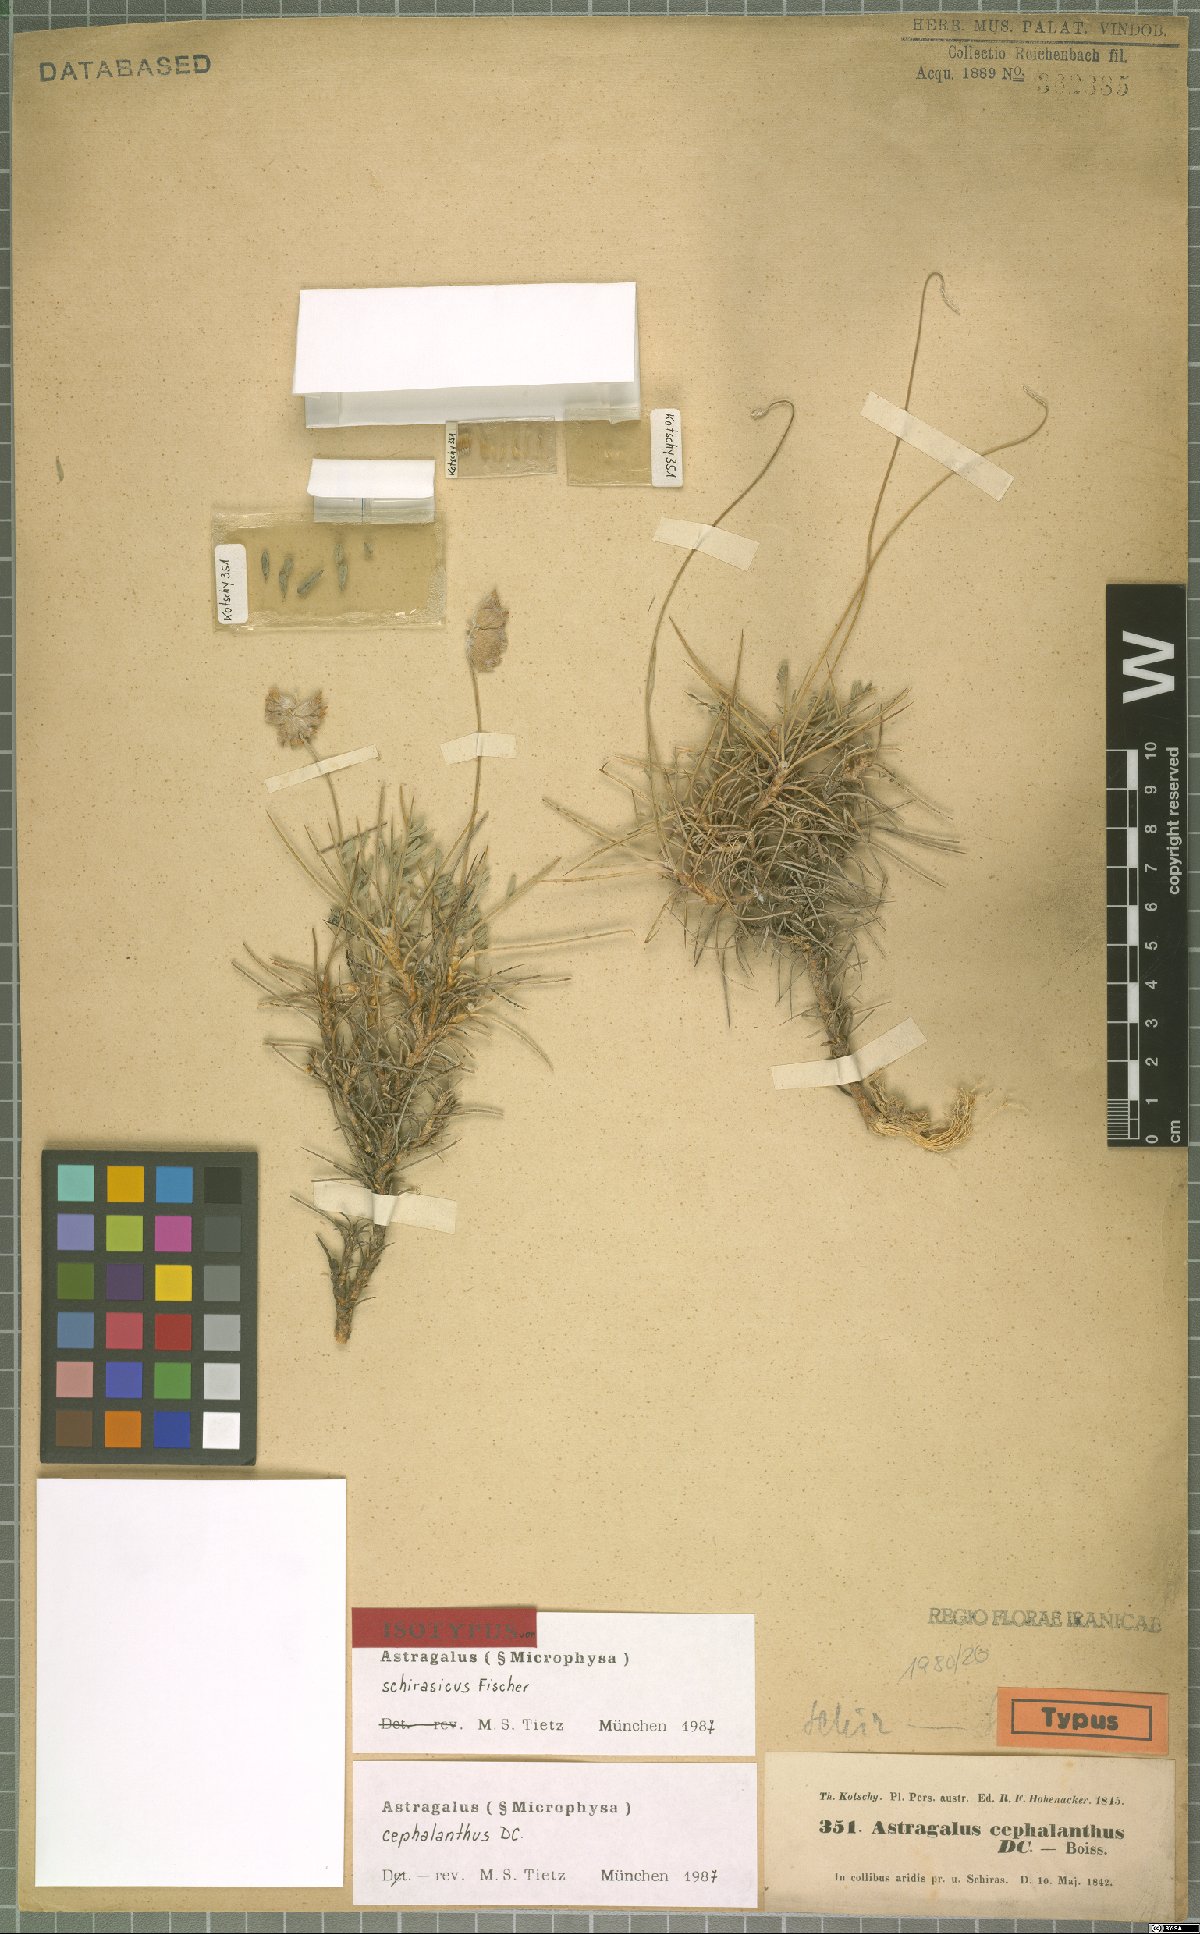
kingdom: Plantae
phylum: Tracheophyta
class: Magnoliopsida
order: Fabales
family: Fabaceae
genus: Astragalus
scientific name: Astragalus cephalanthus
